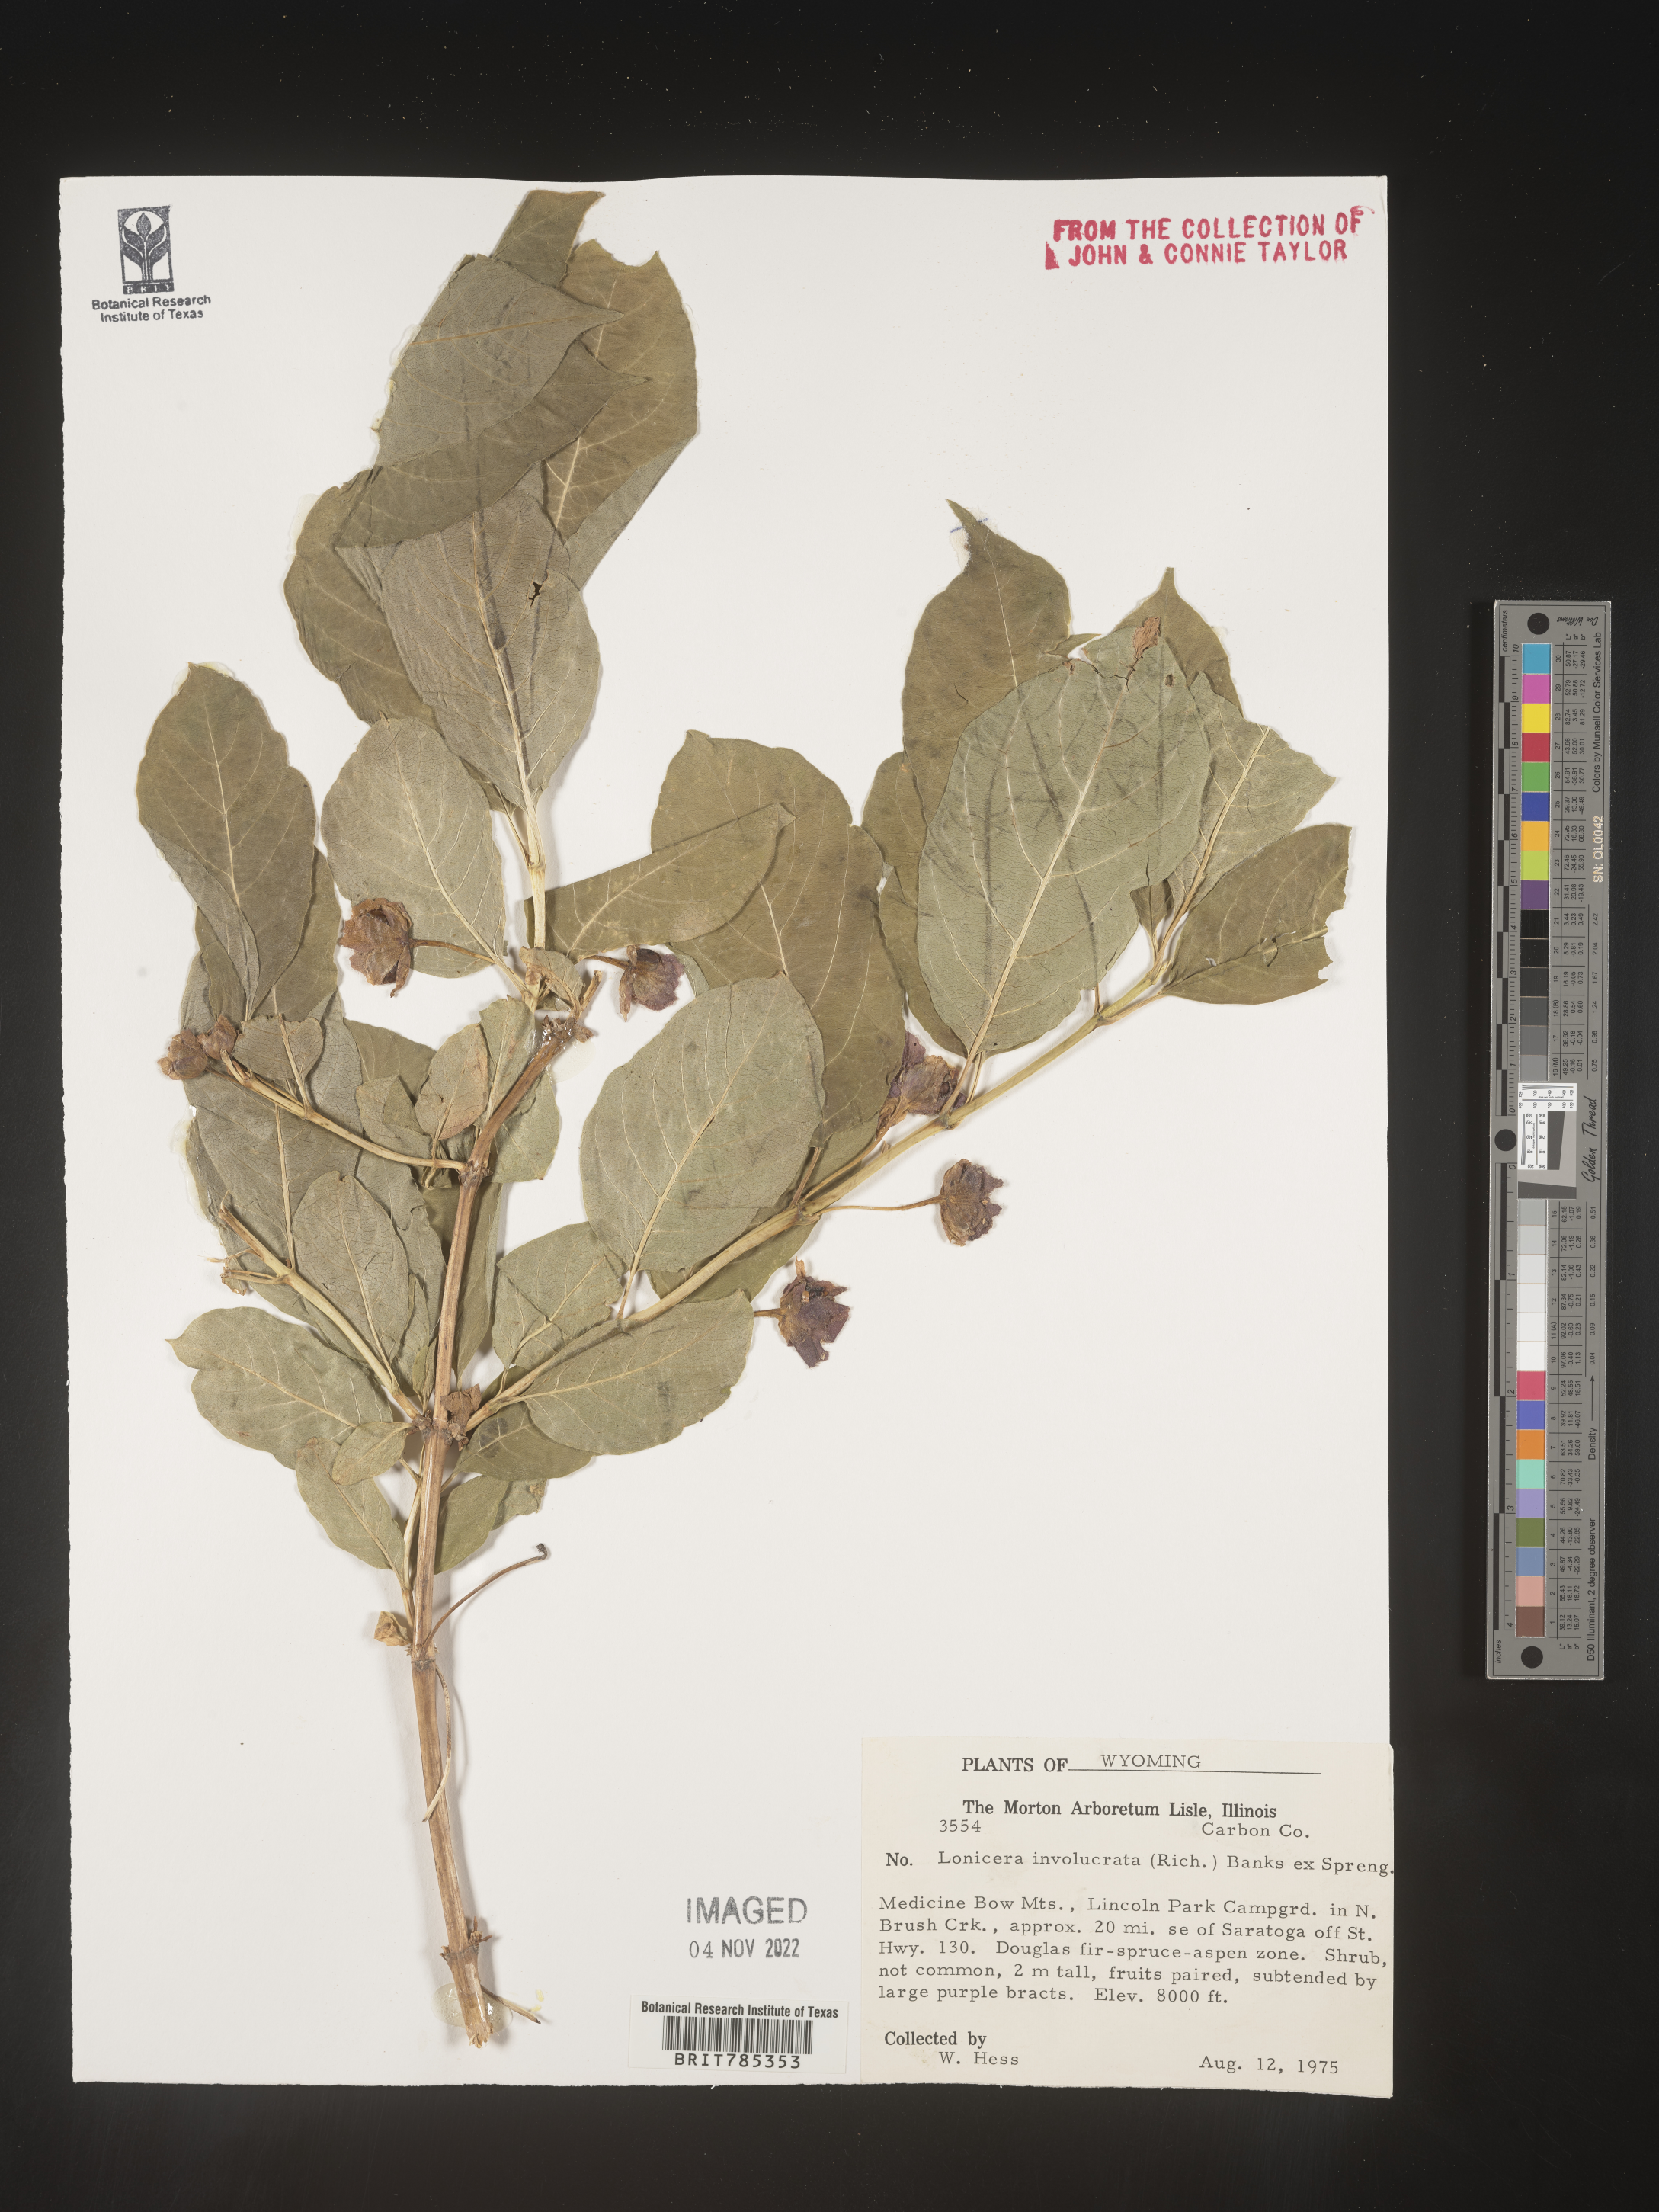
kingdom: Plantae
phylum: Tracheophyta
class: Magnoliopsida
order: Dipsacales
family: Caprifoliaceae
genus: Lonicera
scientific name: Lonicera involucrata
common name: Californian honeysuckle
